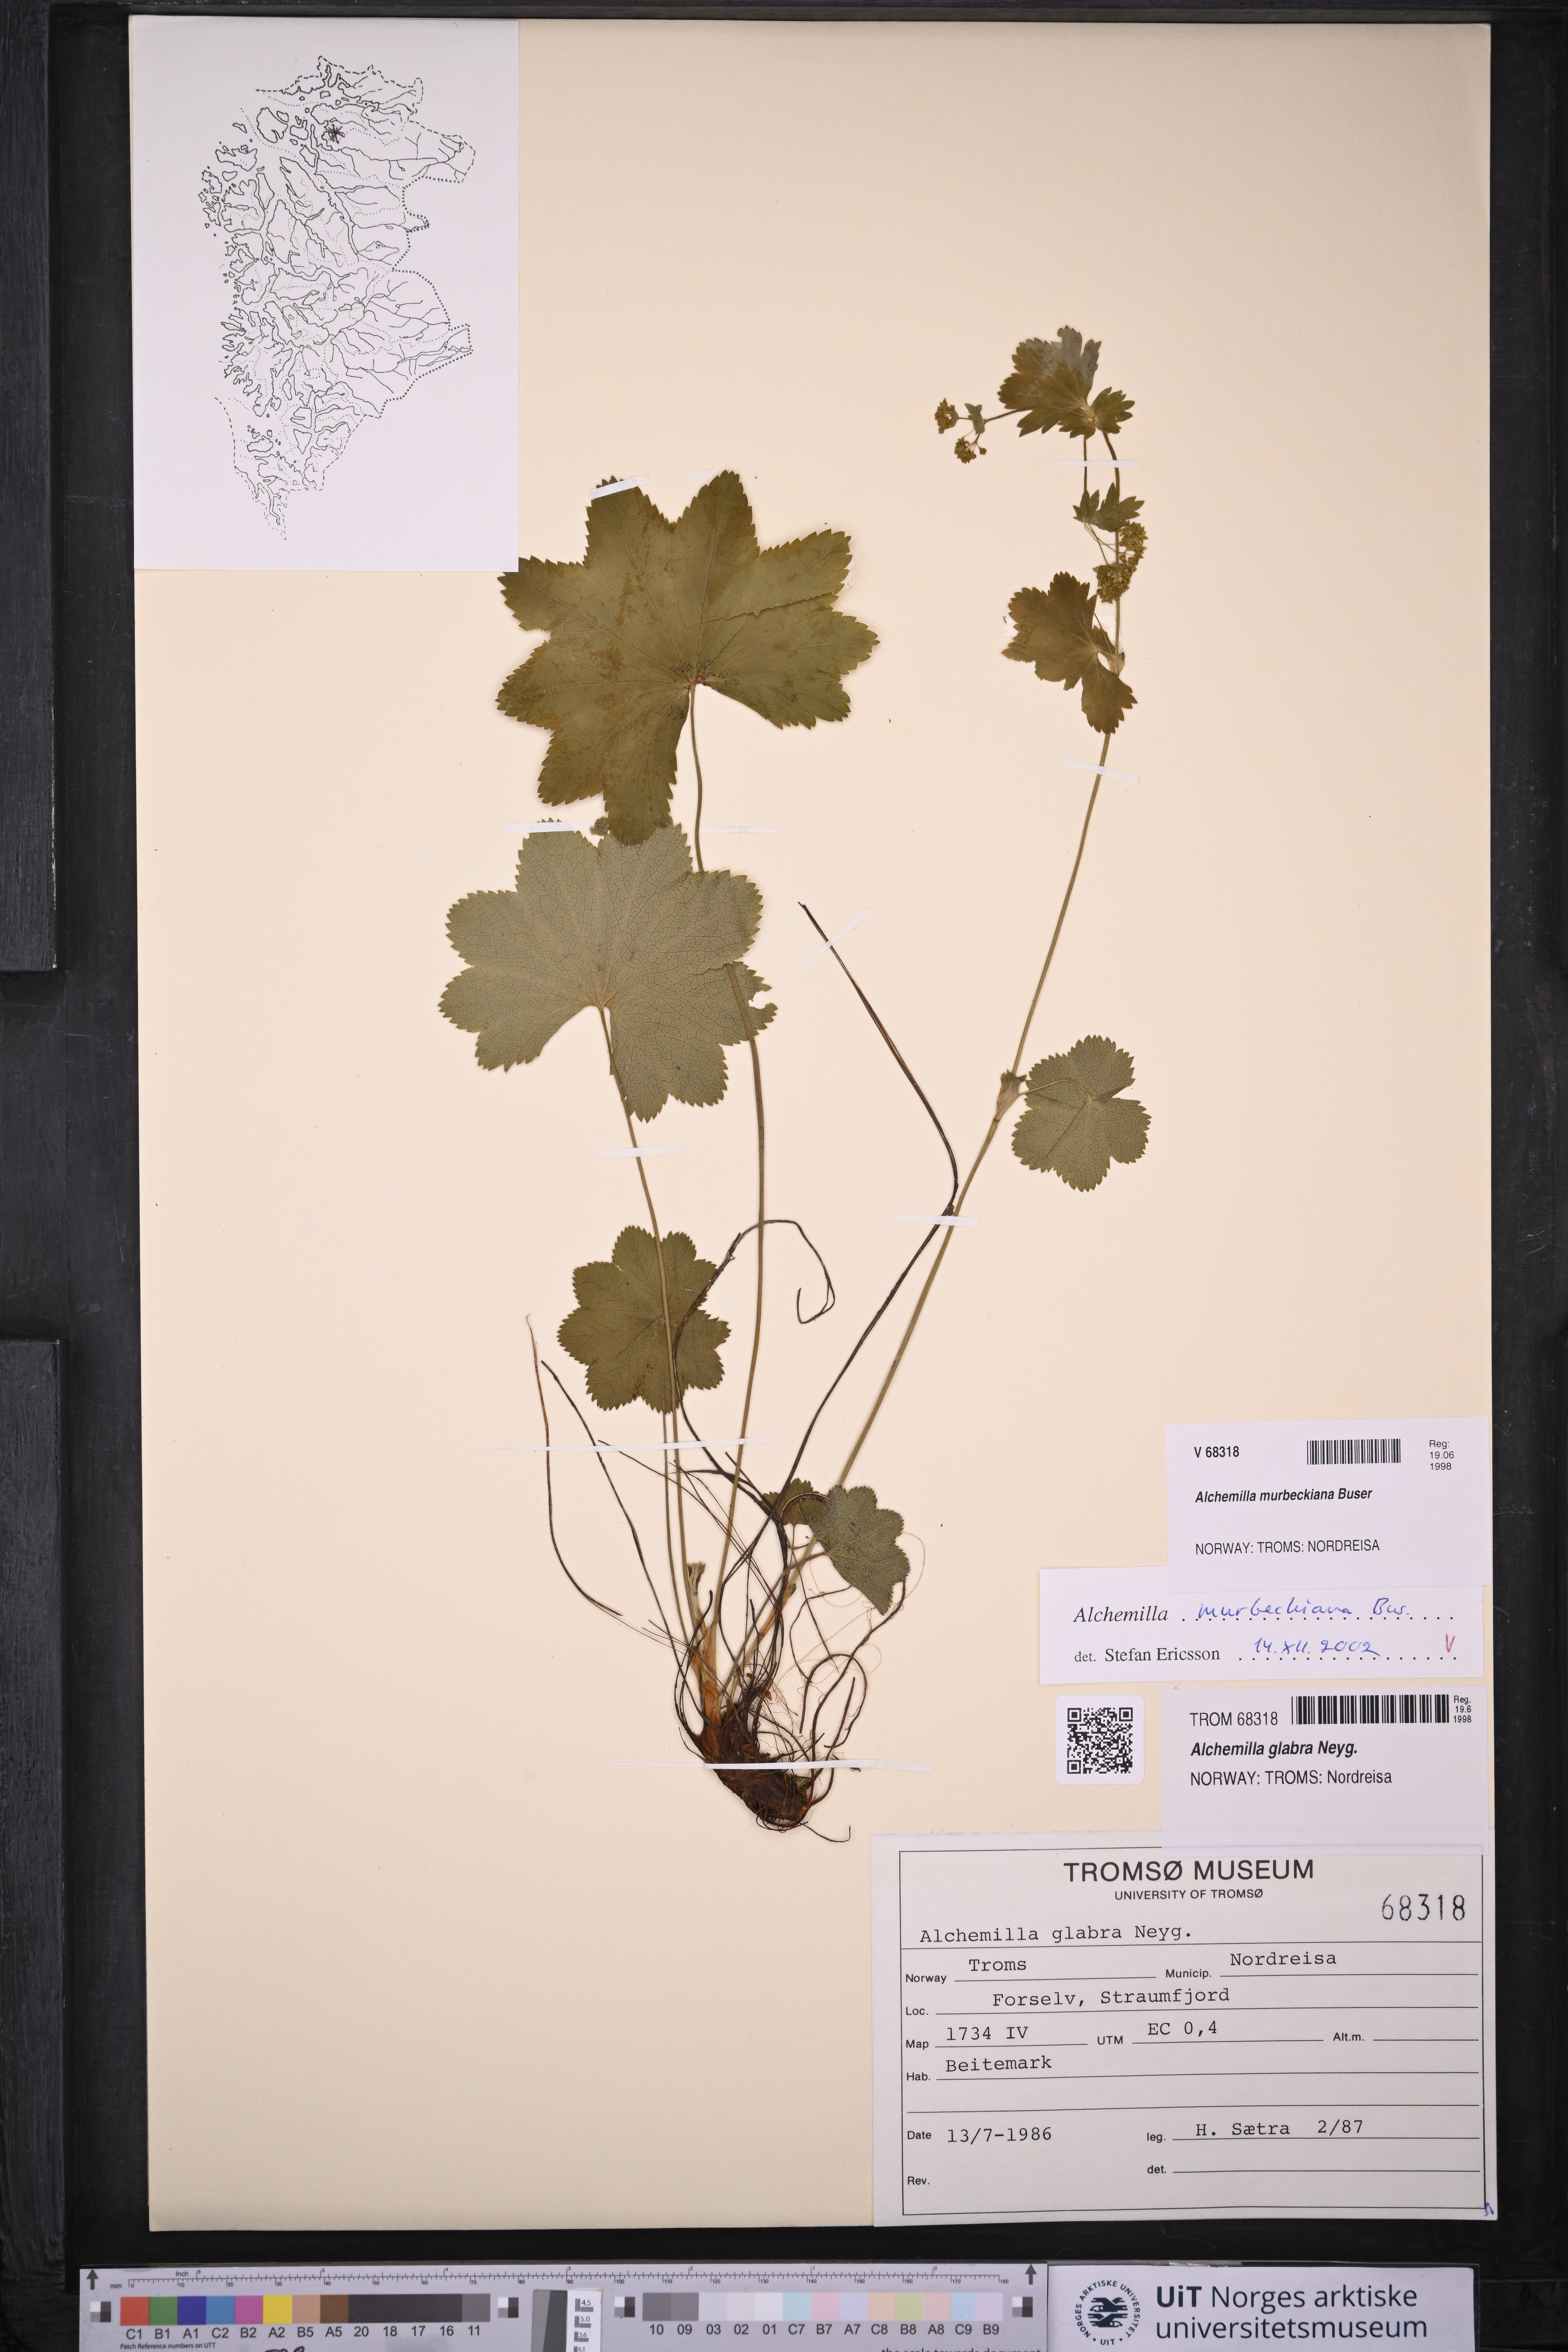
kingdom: Plantae
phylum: Tracheophyta
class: Magnoliopsida
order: Rosales
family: Rosaceae
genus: Alchemilla
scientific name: Alchemilla murbeckiana
